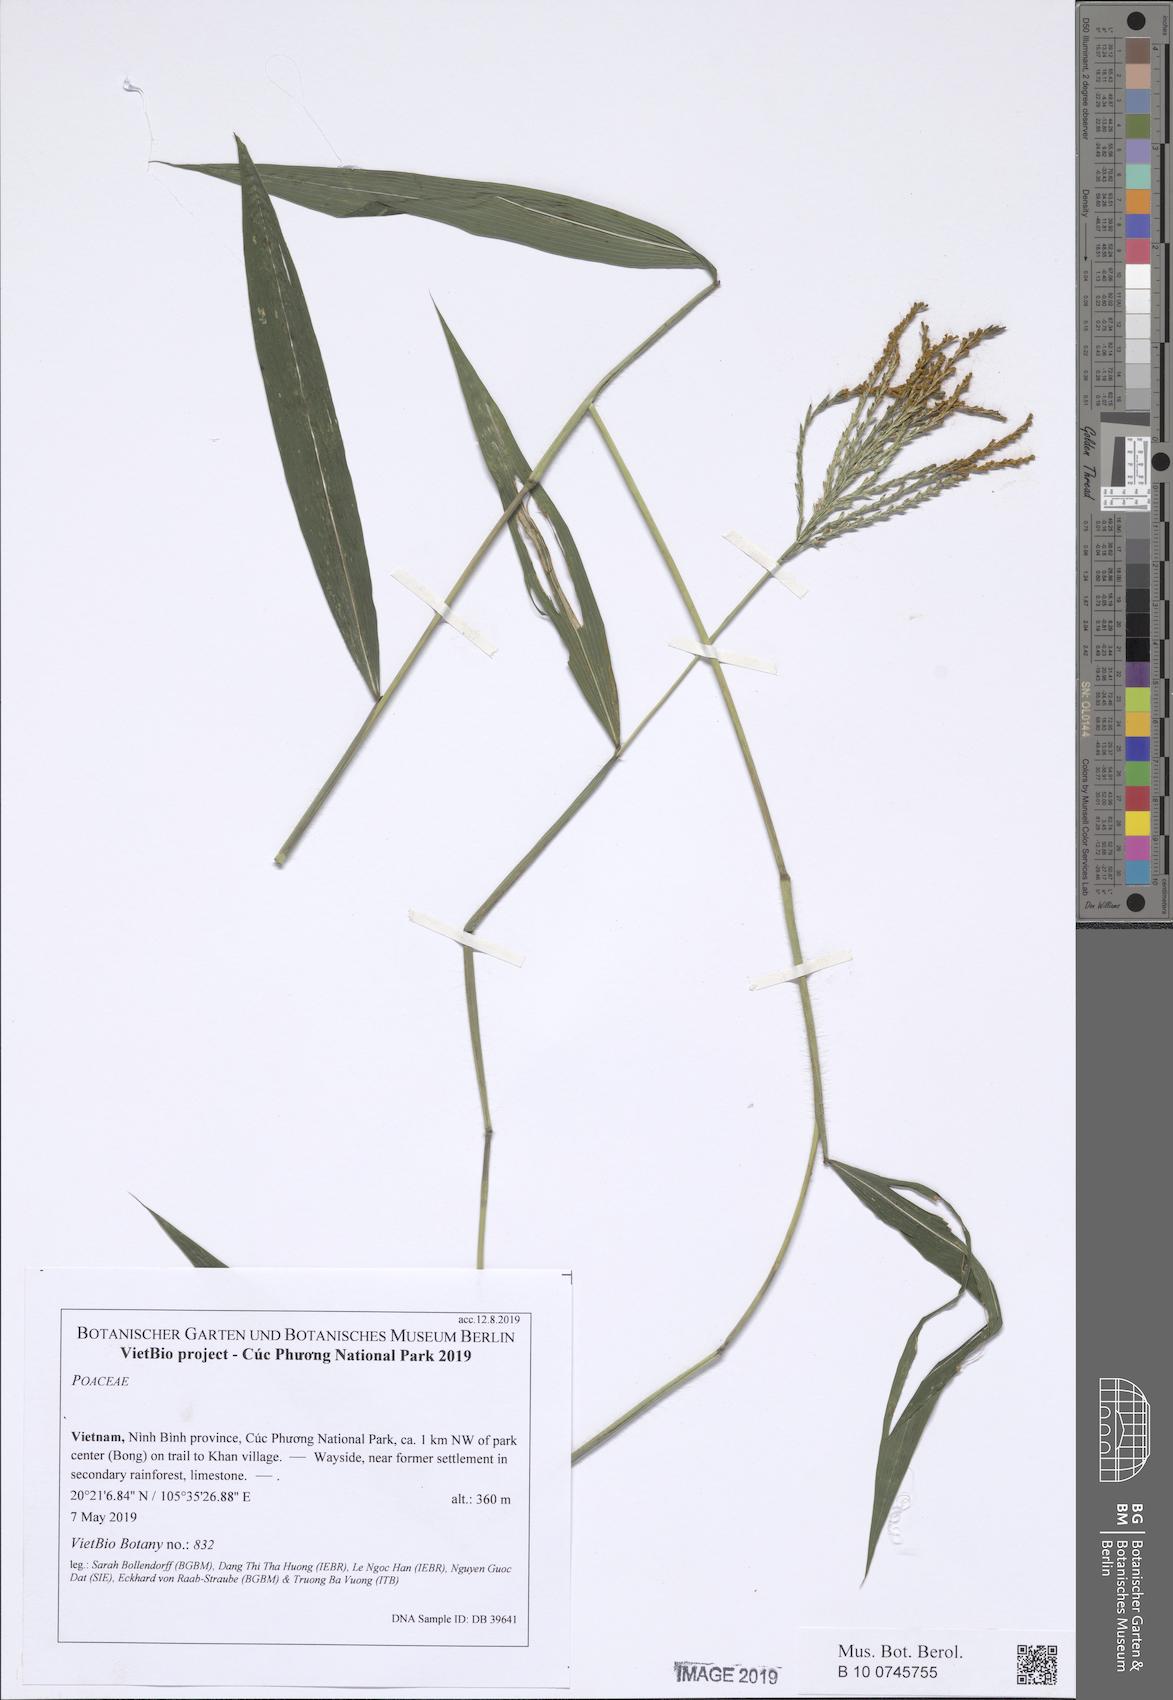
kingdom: Plantae
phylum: Tracheophyta
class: Liliopsida
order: Poales
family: Poaceae
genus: Brachiaria
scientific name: Brachiaria
